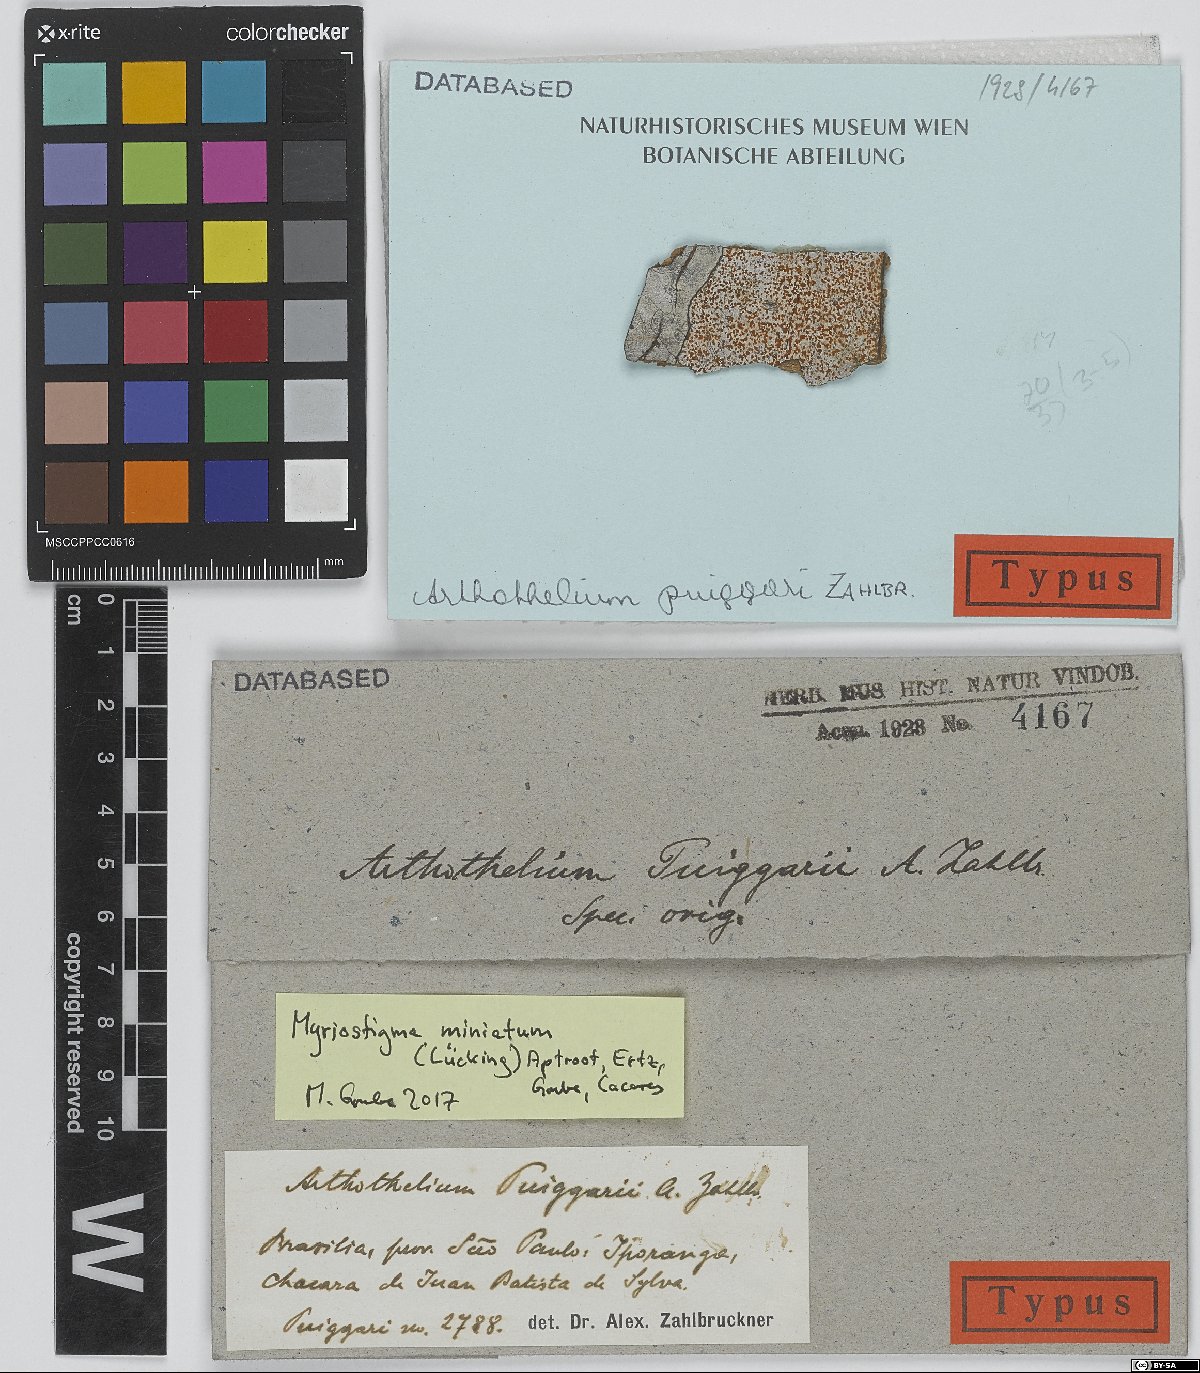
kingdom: Fungi
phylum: Ascomycota
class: Arthoniomycetes
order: Arthoniales
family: Arthoniaceae
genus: Arthothelium
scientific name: Arthothelium
